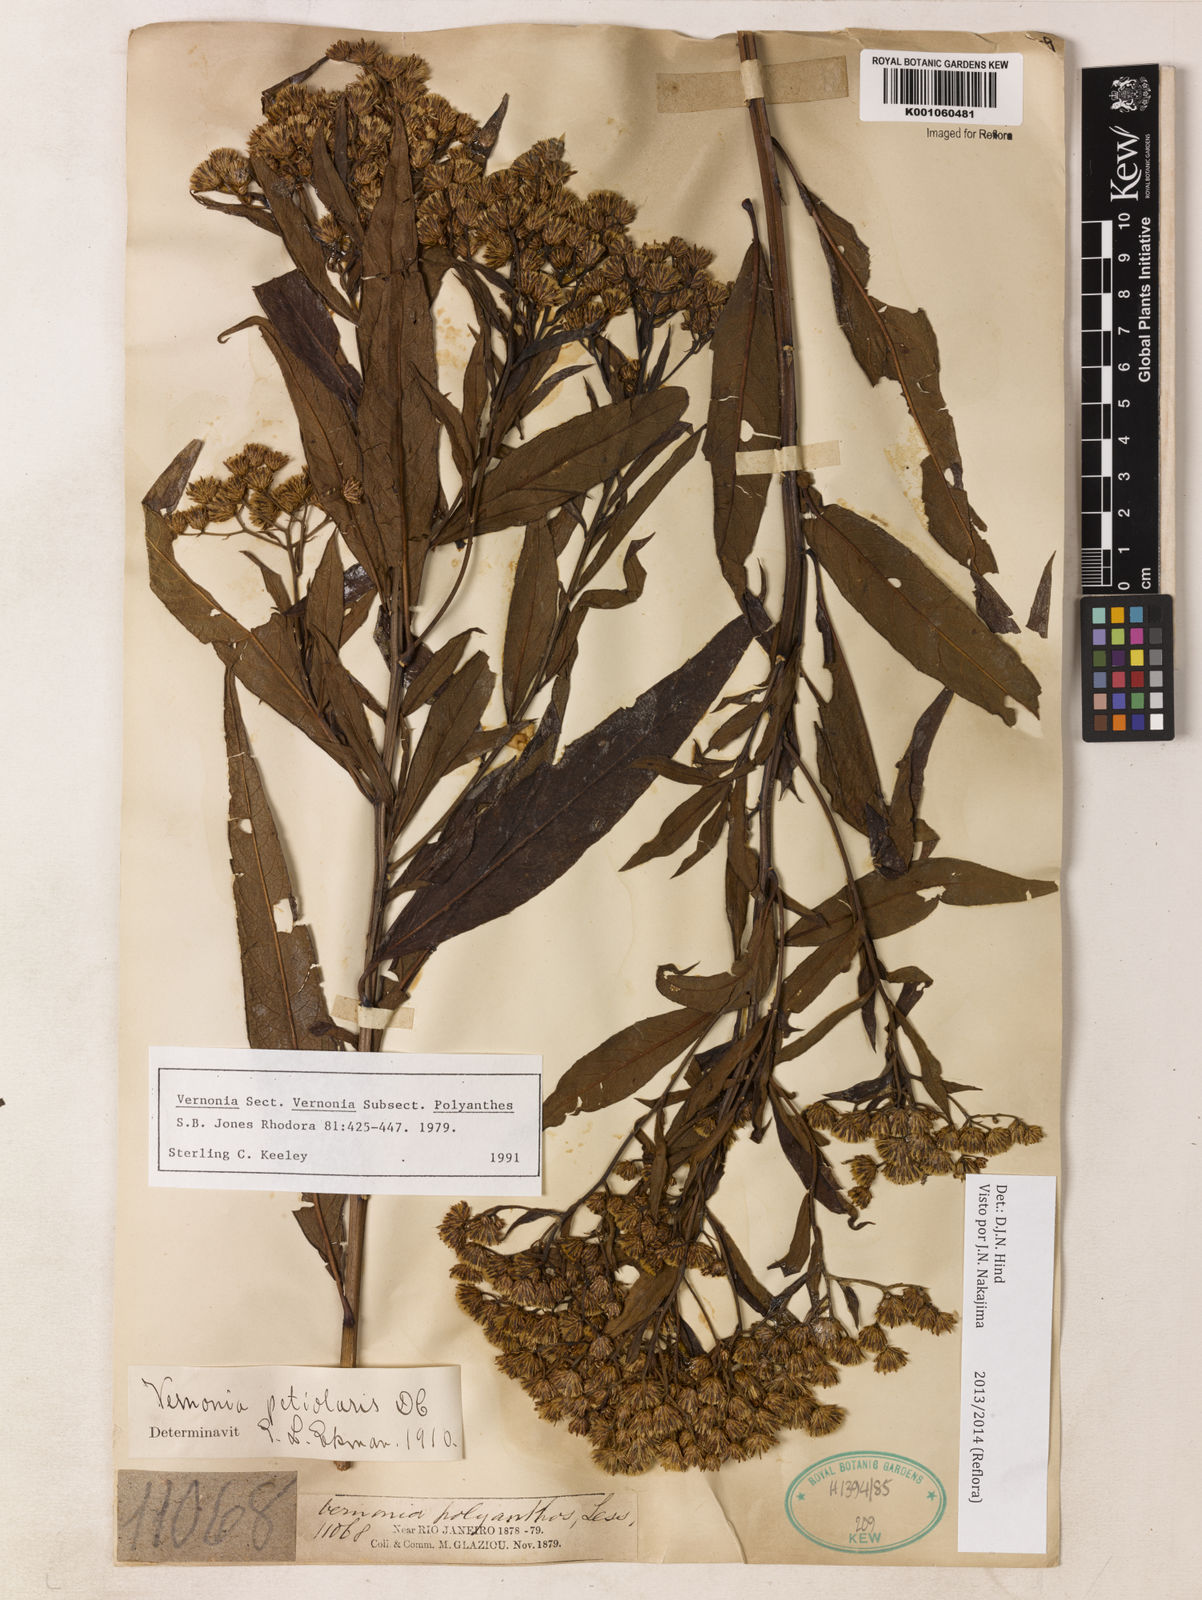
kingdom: Plantae
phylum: Tracheophyta
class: Magnoliopsida
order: Asterales
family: Asteraceae
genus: Vernonanthura
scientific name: Vernonanthura petiolaris
